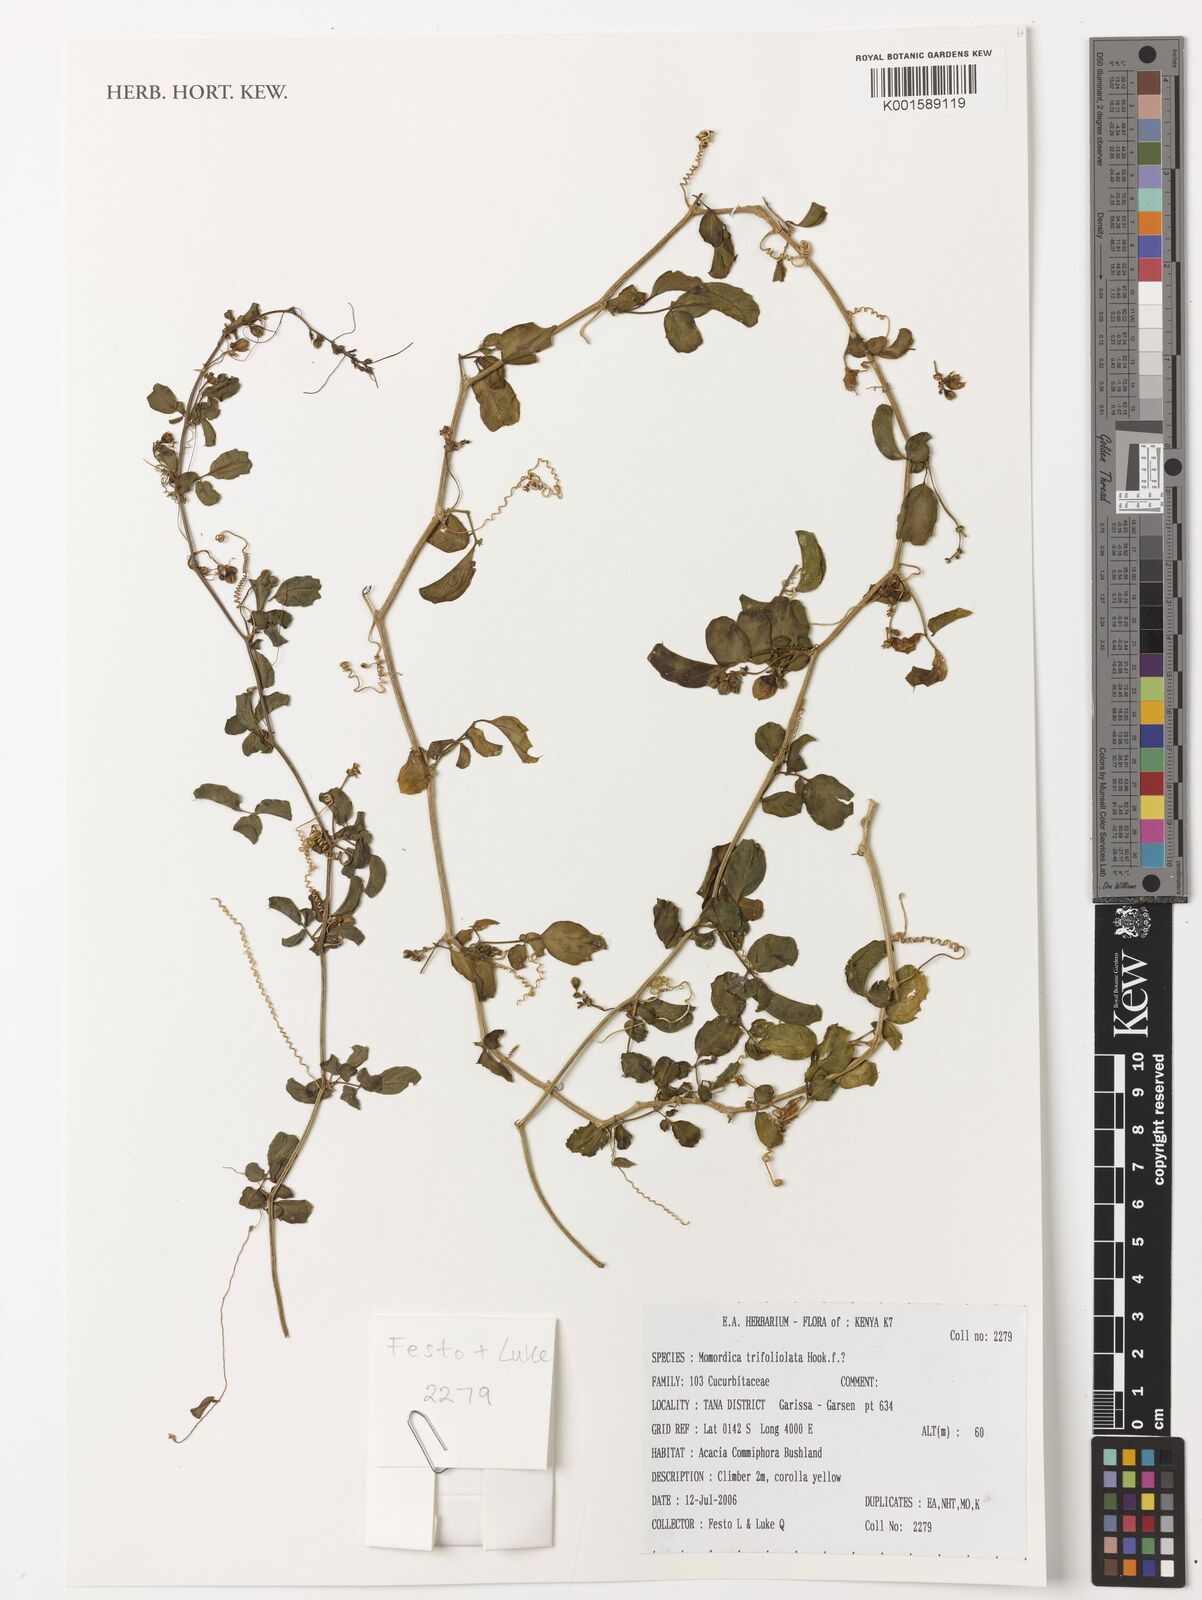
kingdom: Plantae
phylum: Tracheophyta
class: Magnoliopsida
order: Cucurbitales
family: Cucurbitaceae
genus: Momordica
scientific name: Momordica trifoliolata
